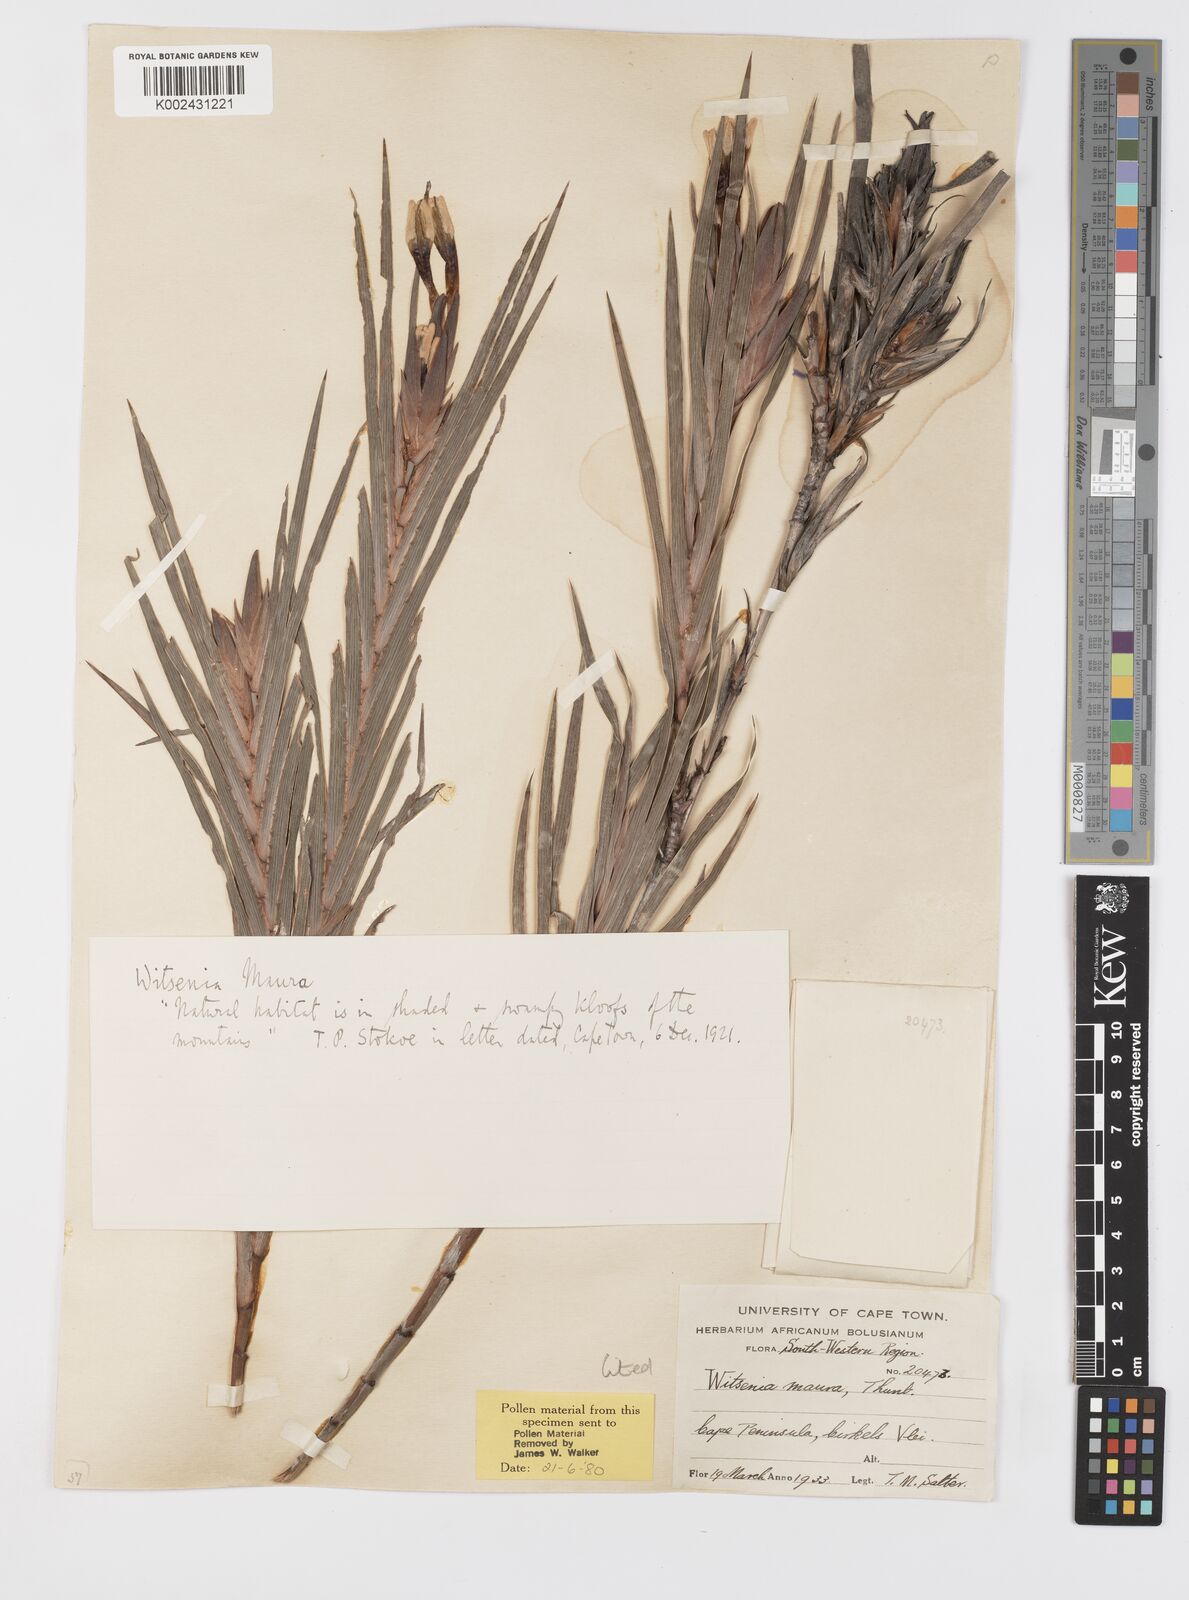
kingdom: Plantae
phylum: Tracheophyta
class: Liliopsida
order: Asparagales
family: Iridaceae
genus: Witsenia
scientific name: Witsenia maura
